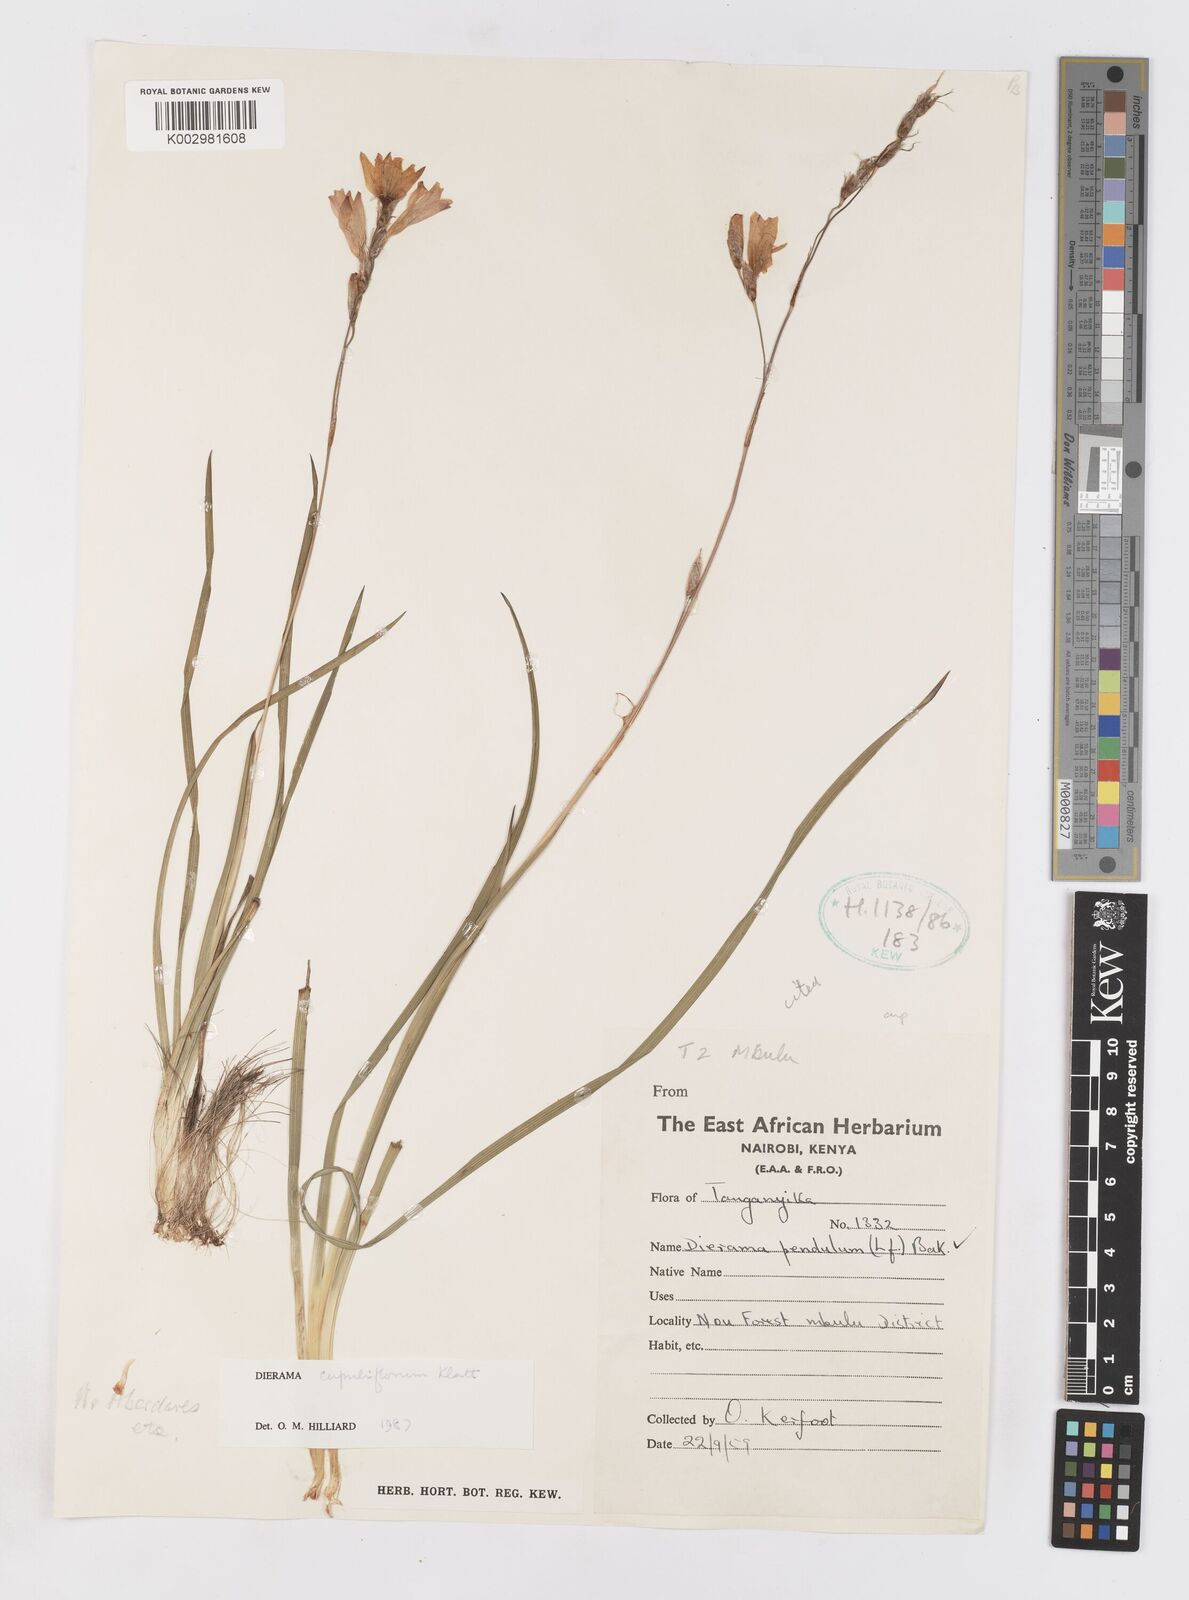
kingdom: Plantae
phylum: Tracheophyta
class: Liliopsida
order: Asparagales
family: Iridaceae
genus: Dierama
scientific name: Dierama cupuliflorum
